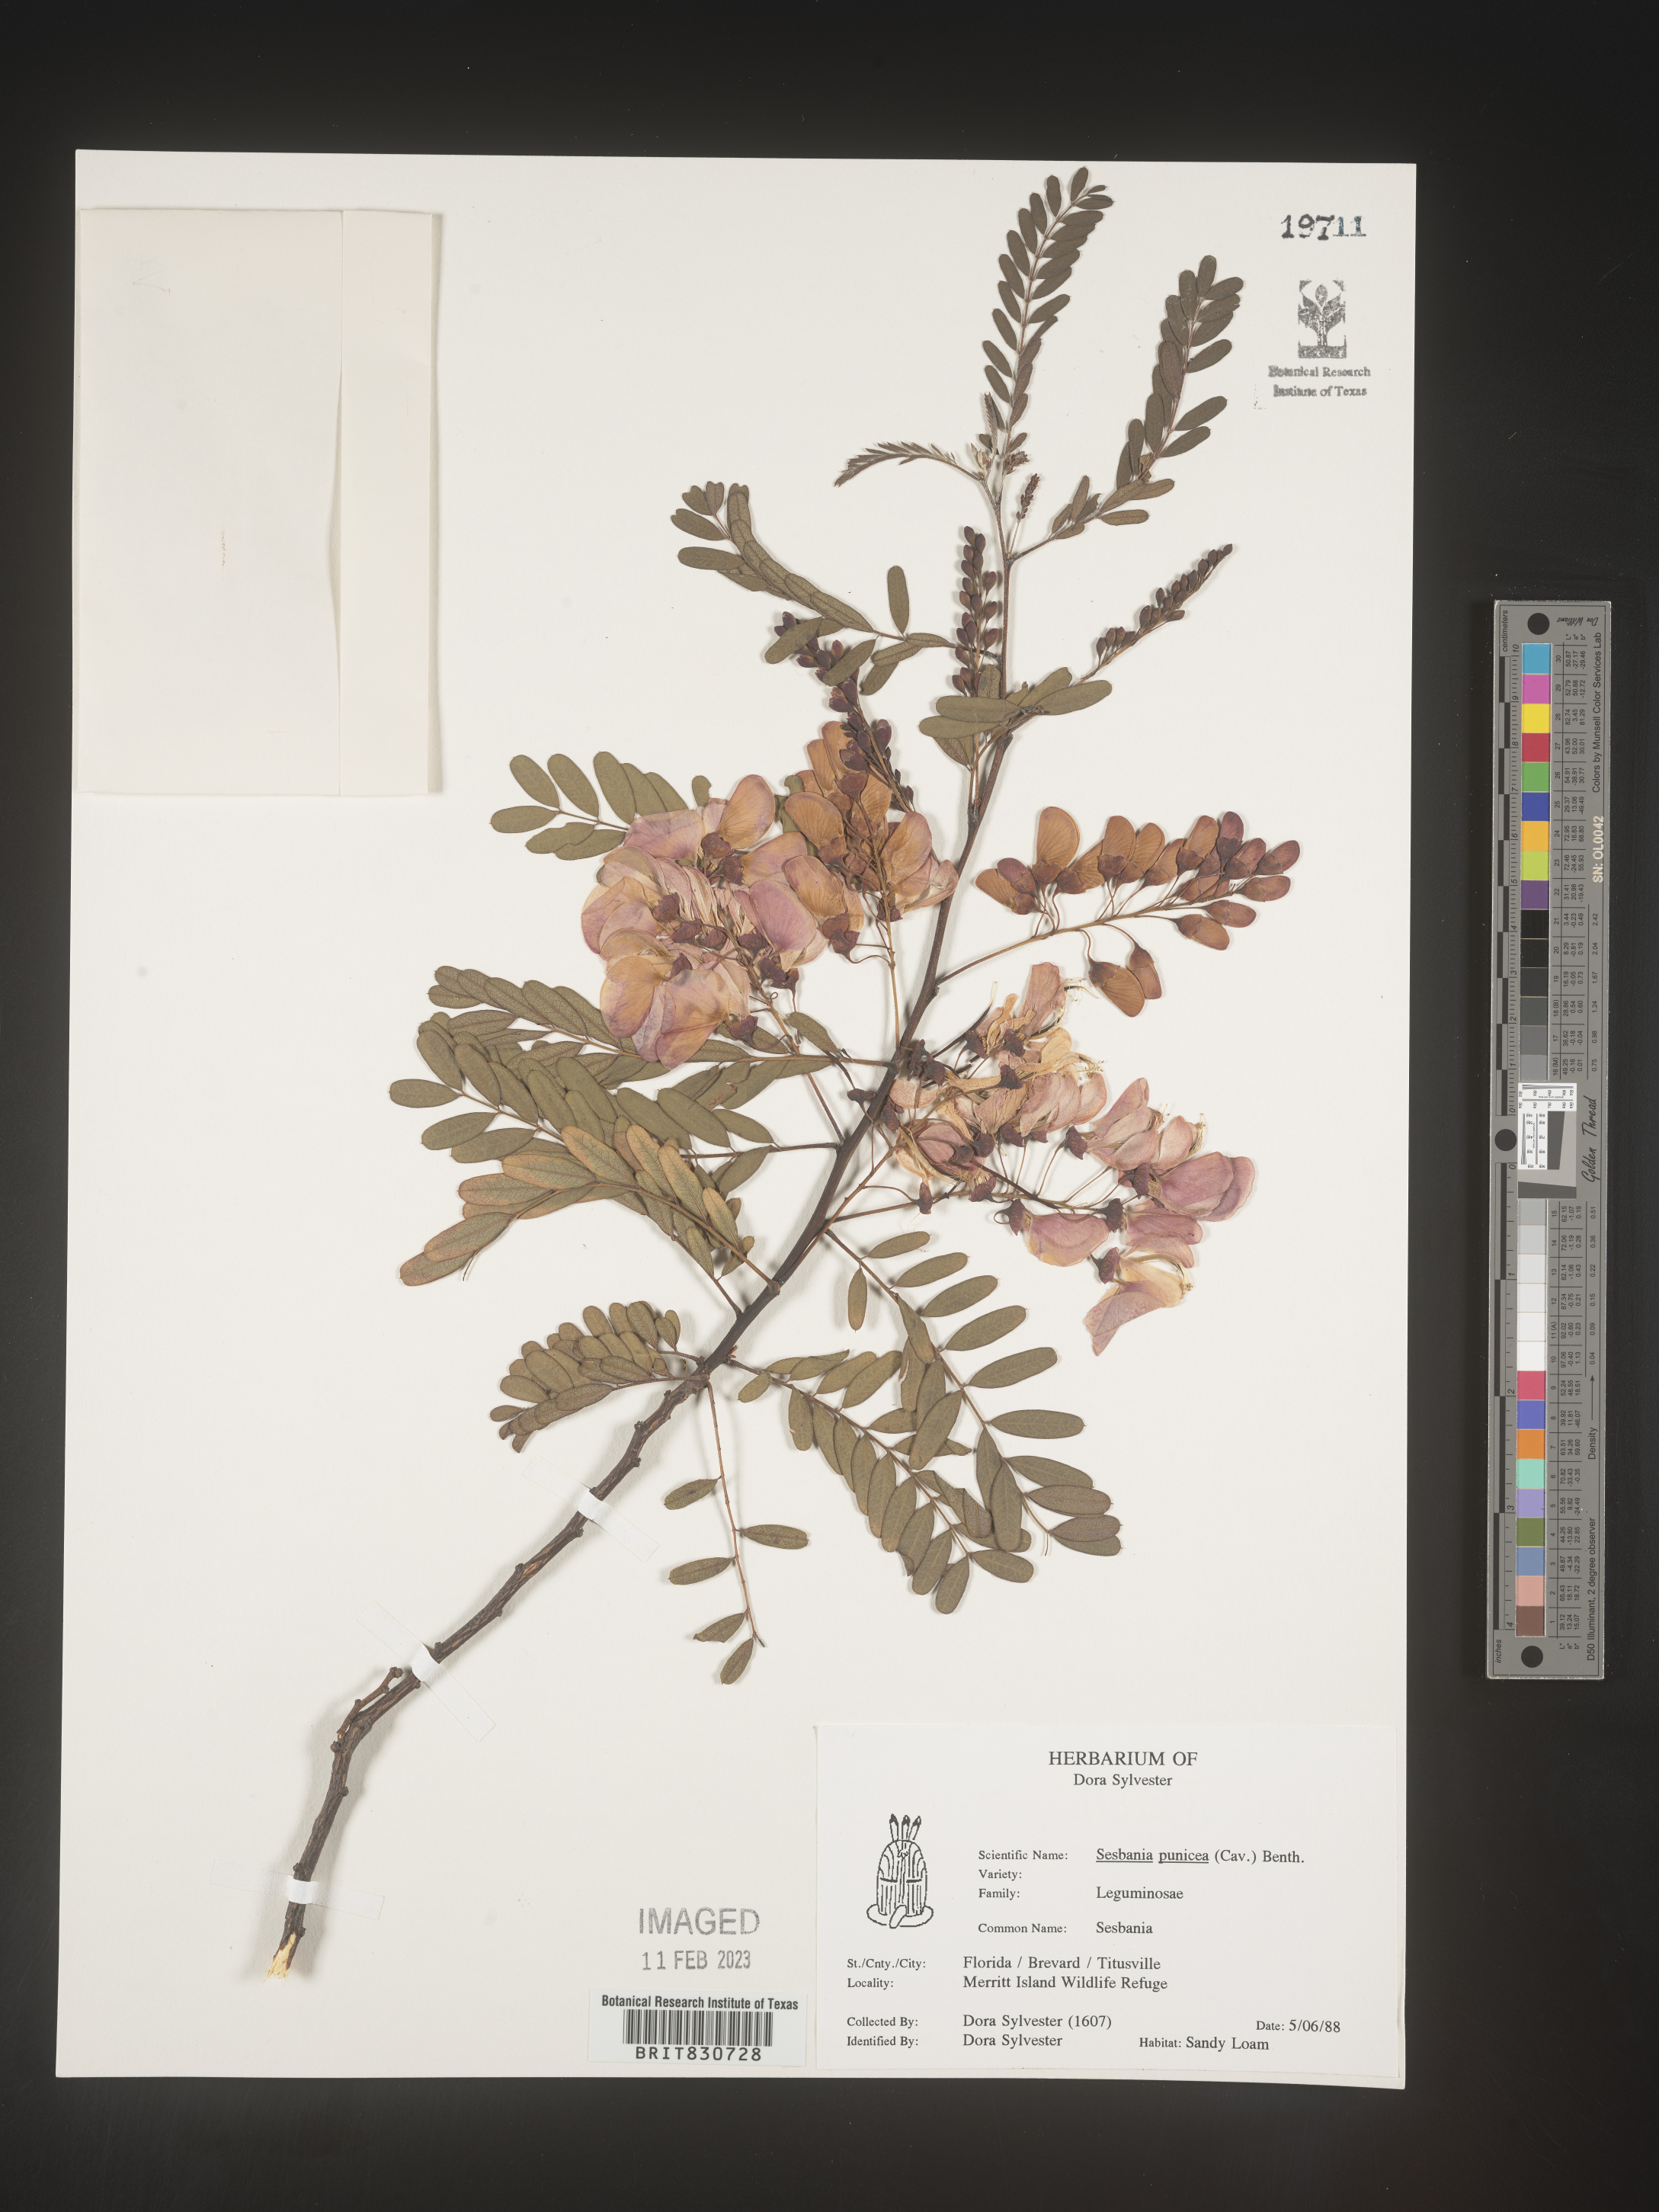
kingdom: Plantae
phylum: Tracheophyta
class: Magnoliopsida
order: Fabales
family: Fabaceae
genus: Sesbania
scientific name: Sesbania punicea
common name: Rattlebox
